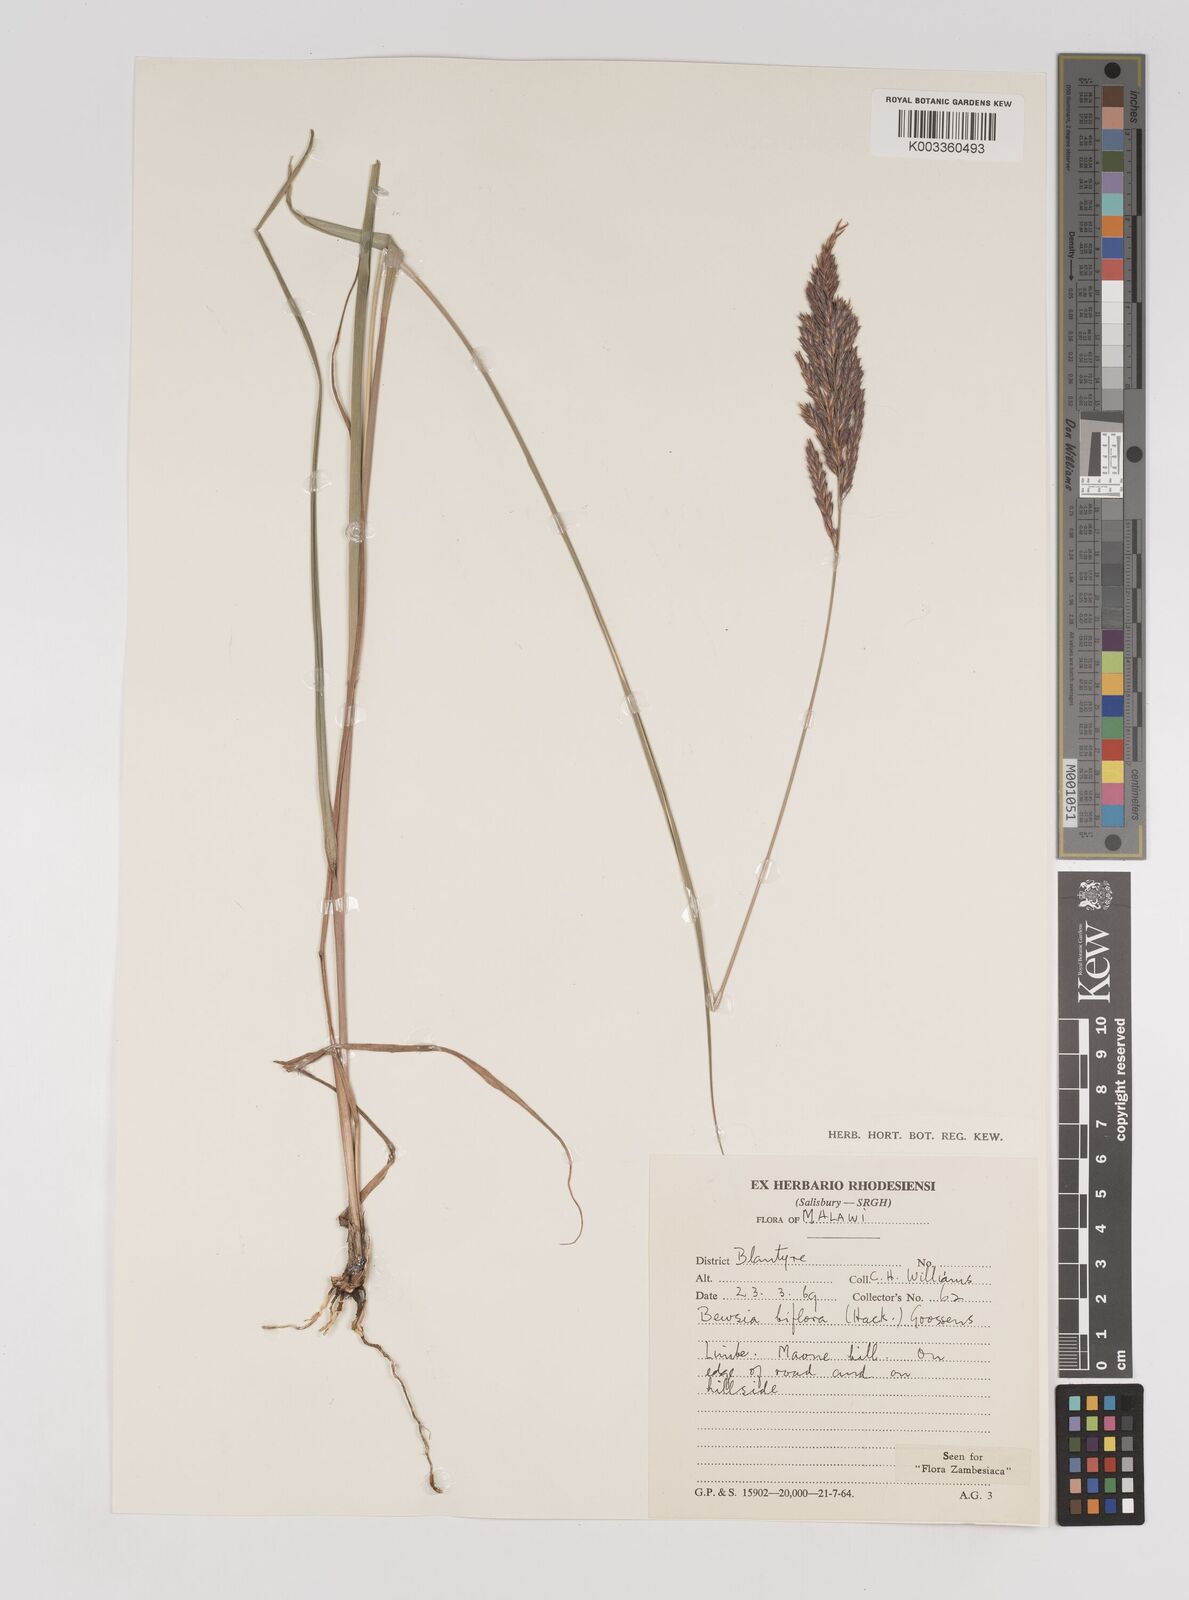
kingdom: Plantae
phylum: Tracheophyta
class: Liliopsida
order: Poales
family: Poaceae
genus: Bewsia
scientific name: Bewsia biflora
